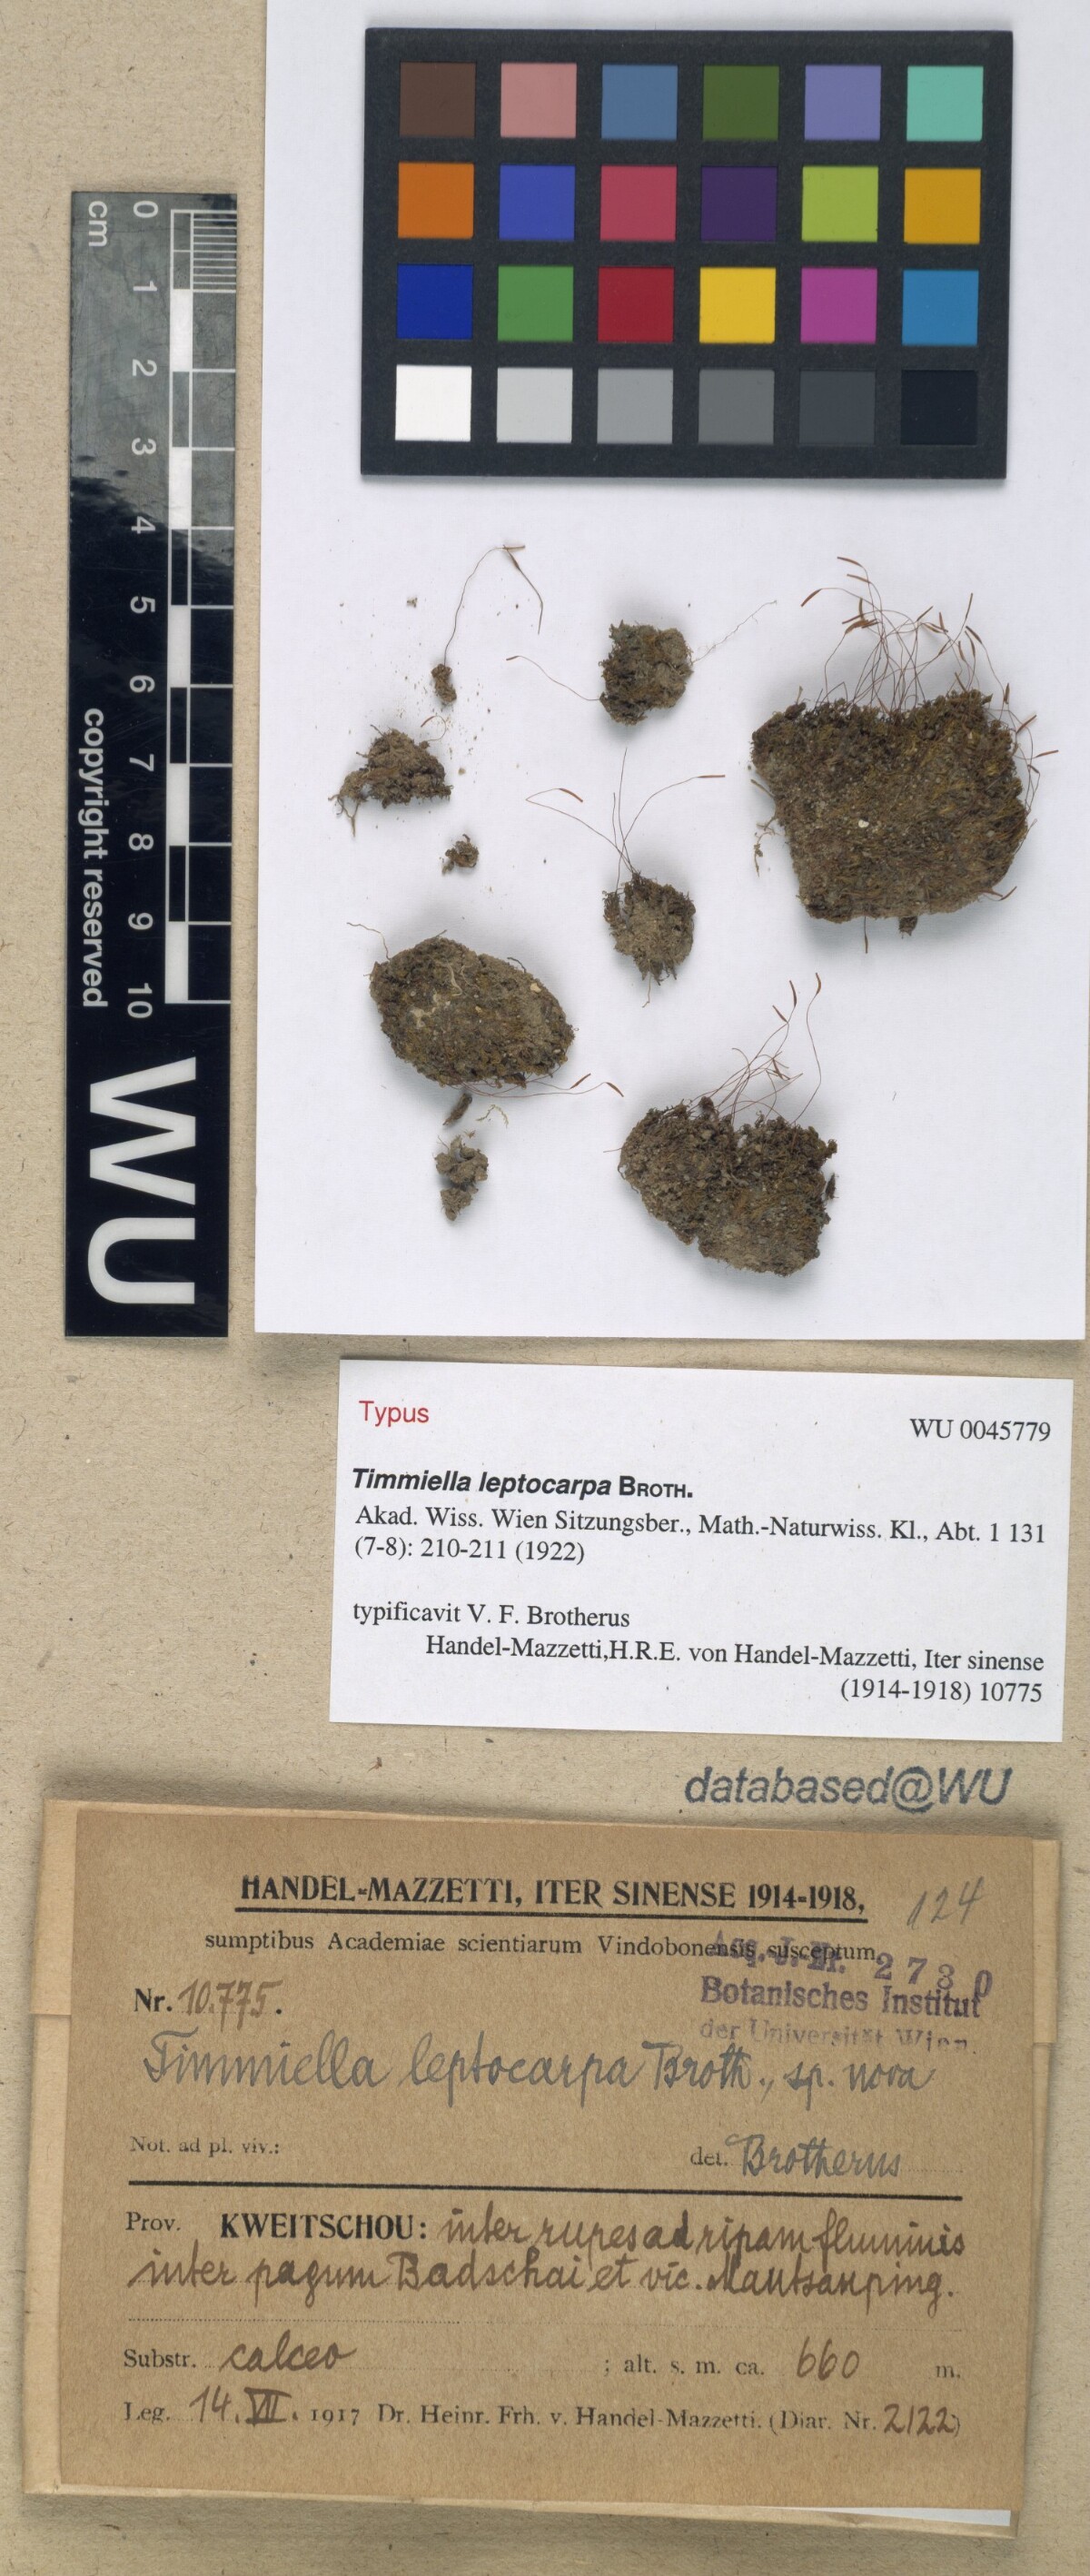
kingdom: Plantae
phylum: Bryophyta
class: Bryopsida
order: Scouleriales
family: Timmiellaceae
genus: Timmiella
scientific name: Timmiella anomala
